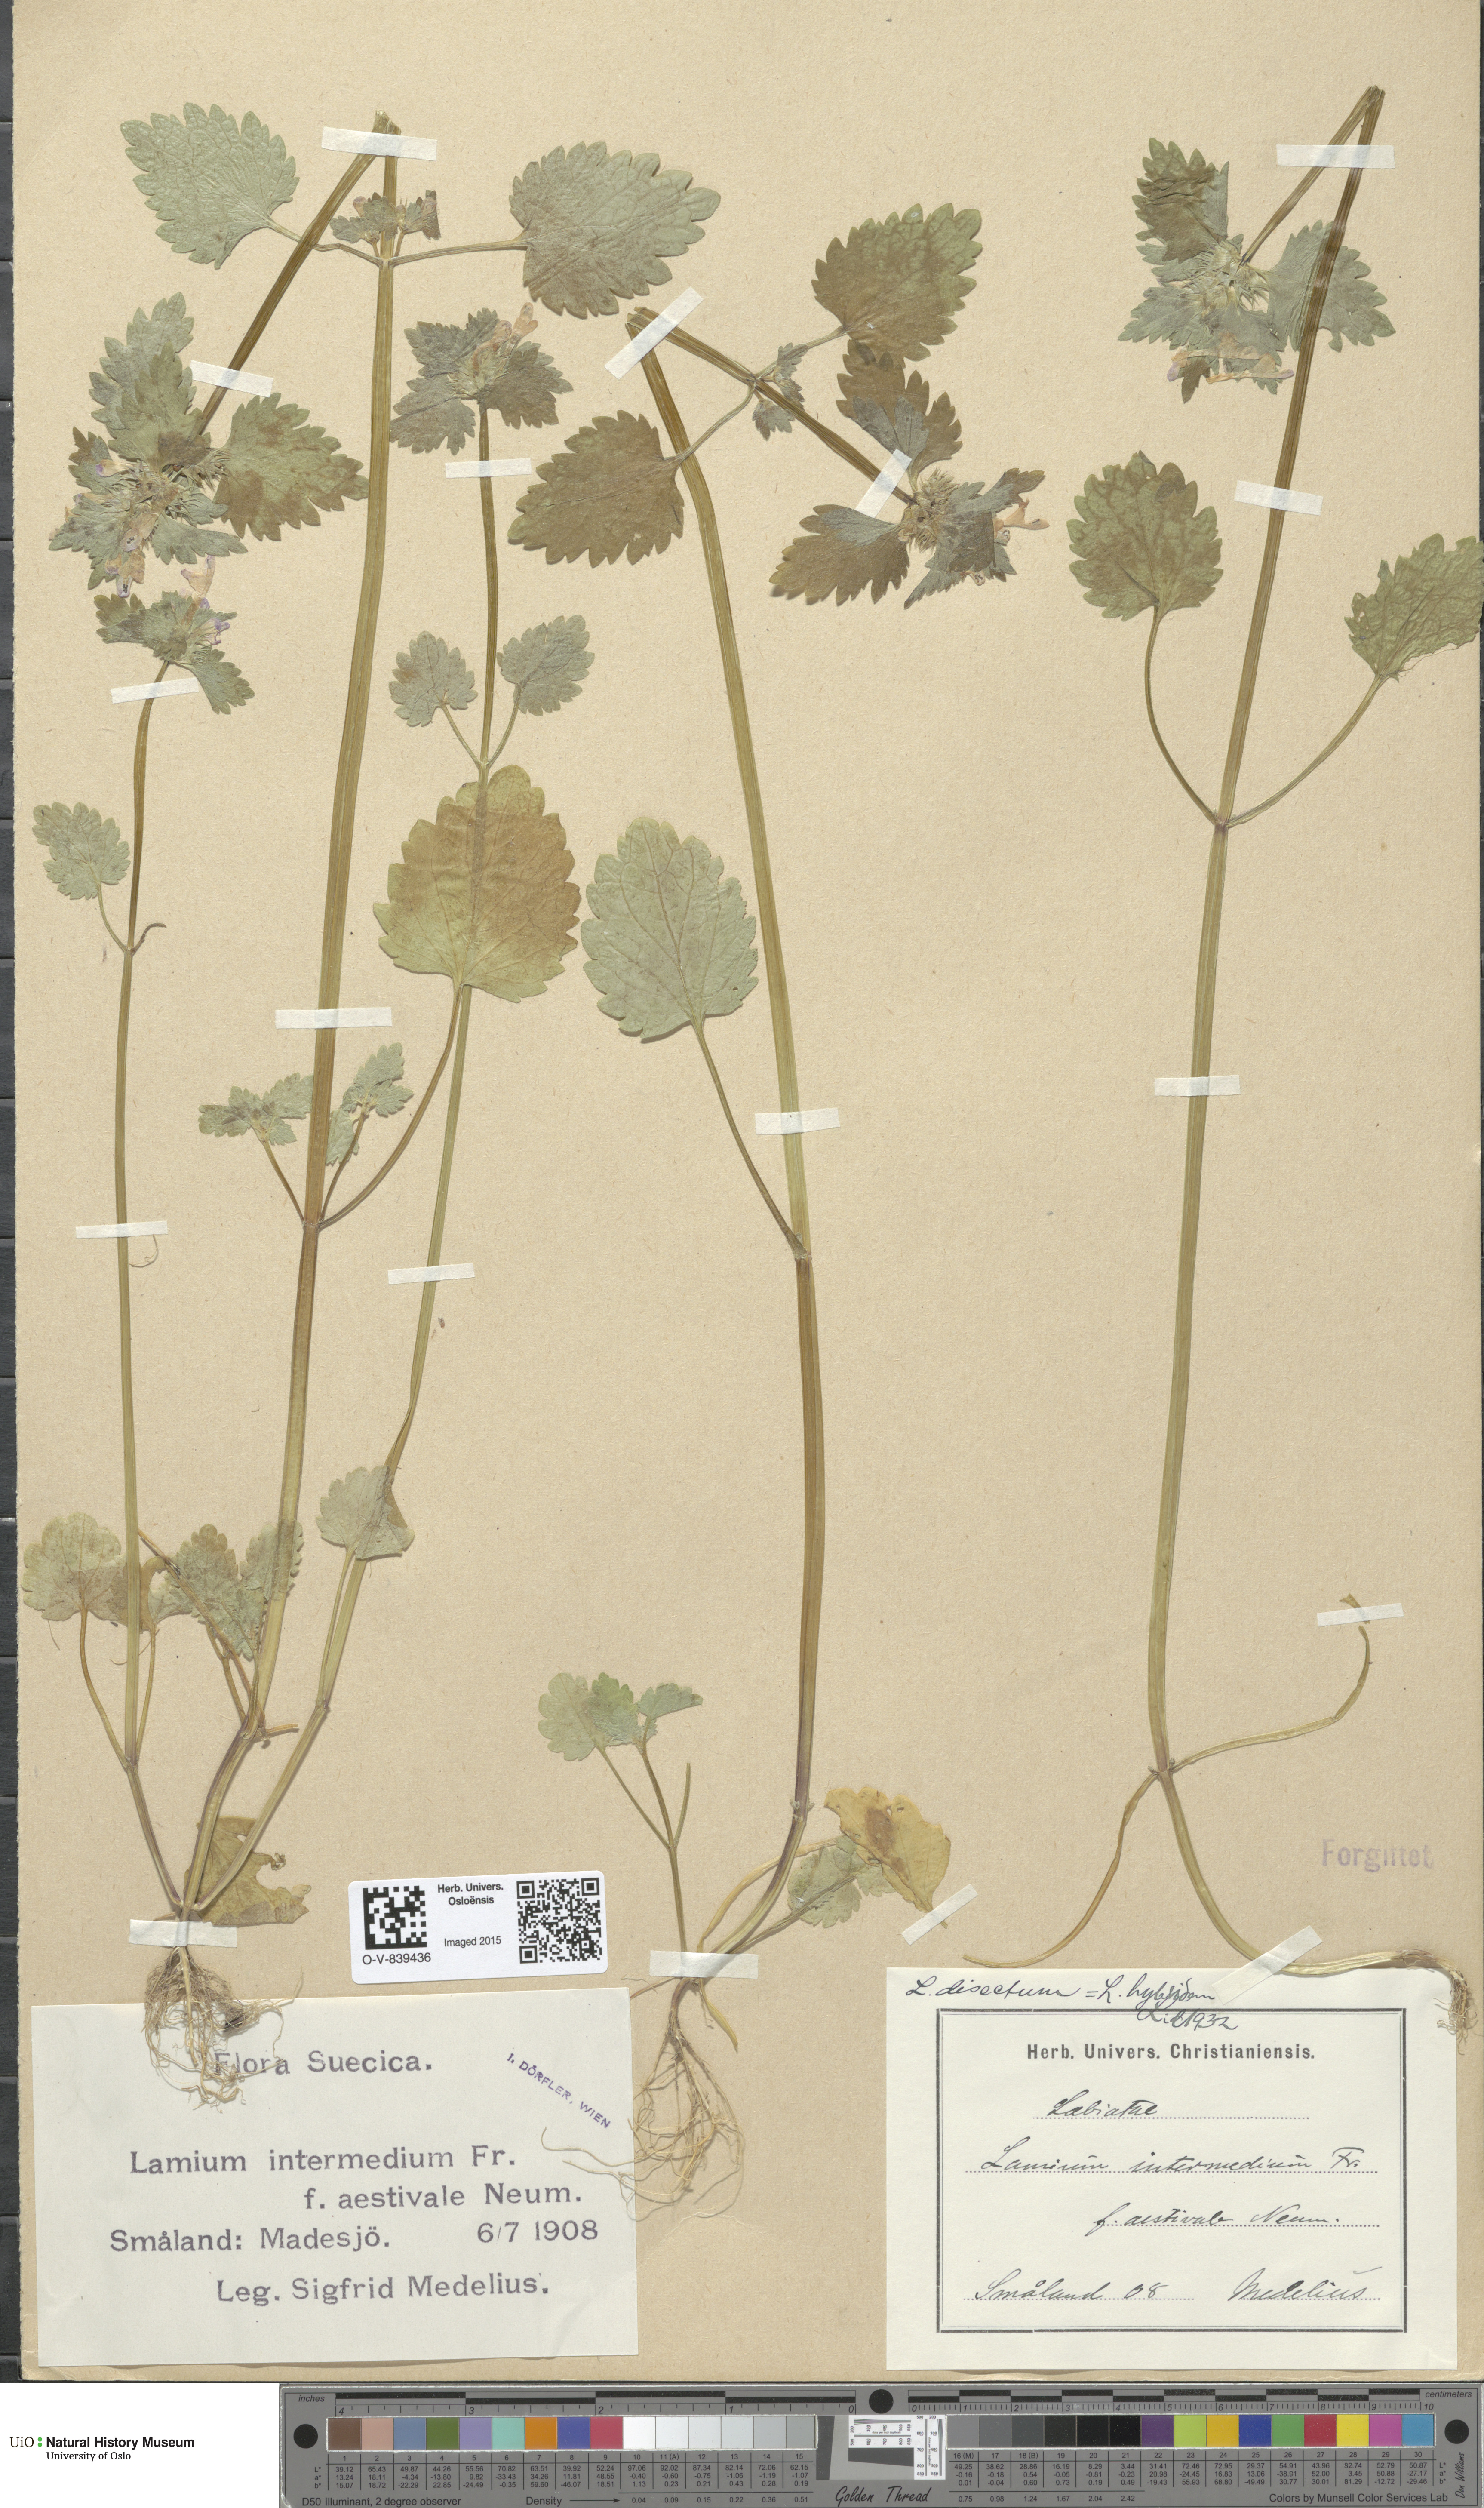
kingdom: Plantae
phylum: Tracheophyta
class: Magnoliopsida
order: Lamiales
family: Lamiaceae
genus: Lamium
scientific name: Lamium hybridum
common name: Cut-leaved dead-nettle
